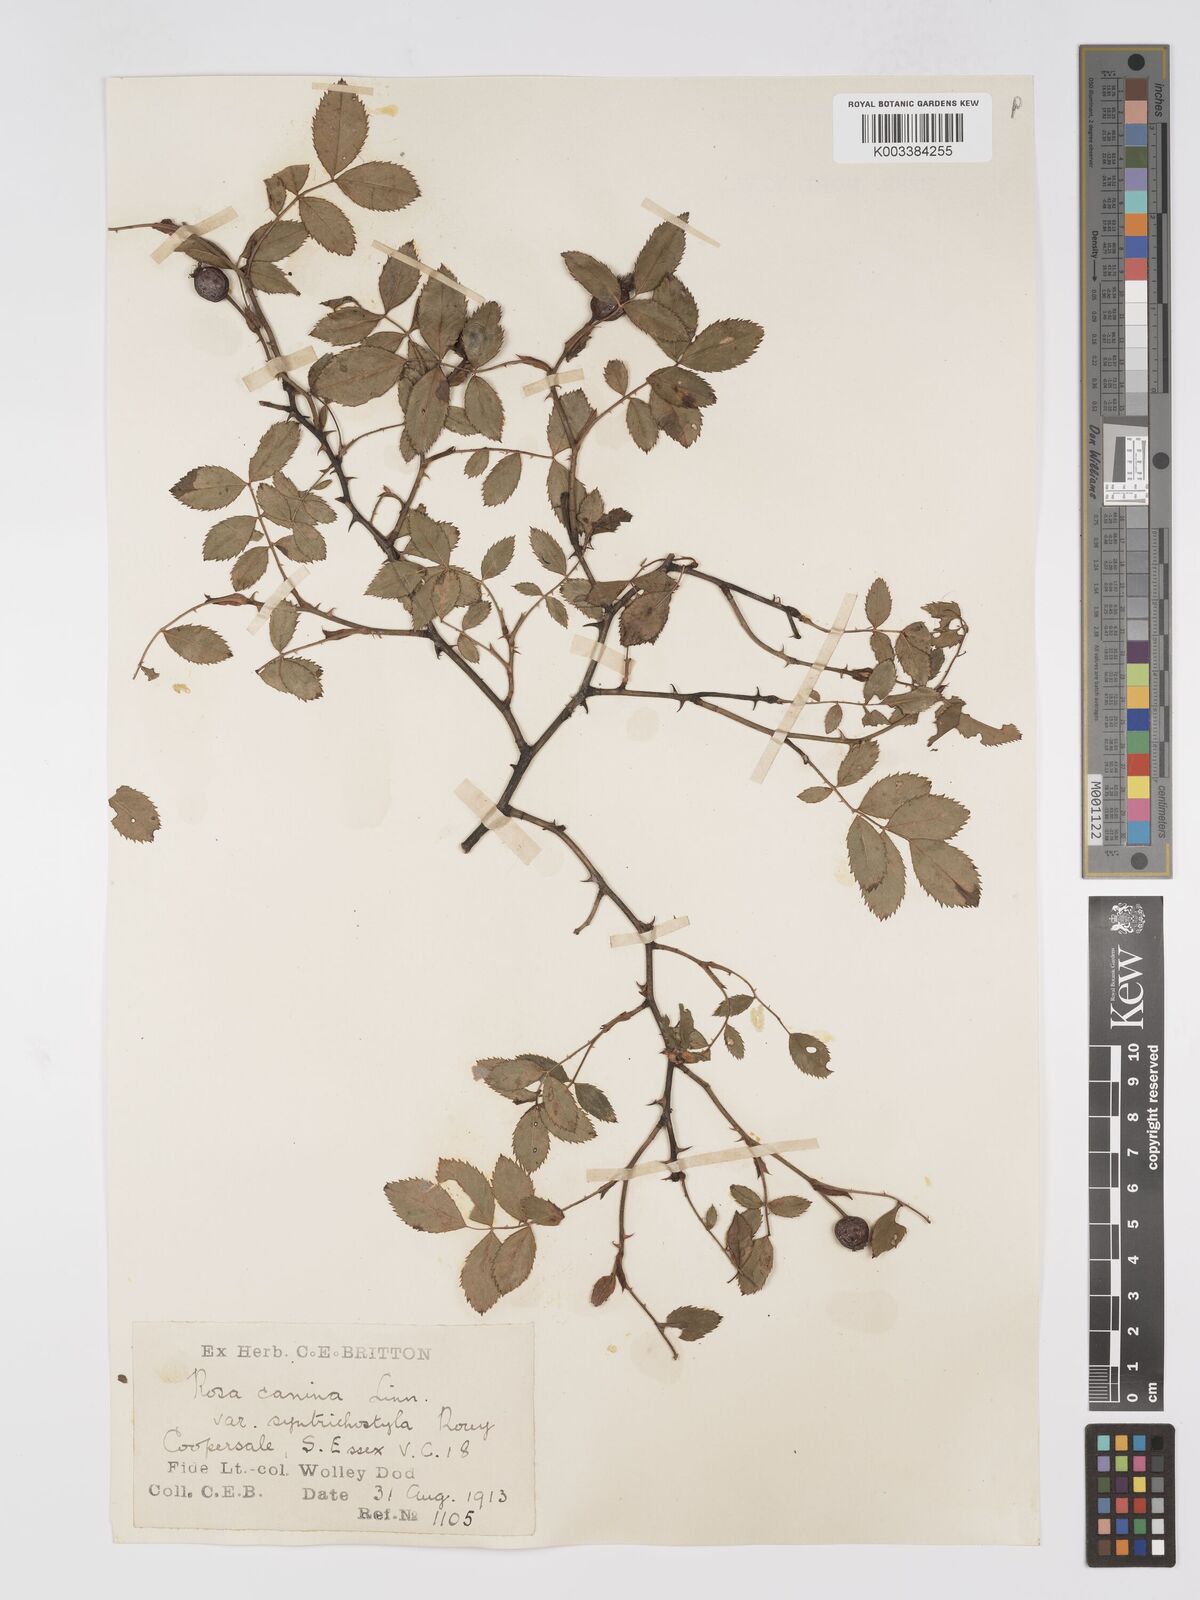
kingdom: Plantae
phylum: Tracheophyta
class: Magnoliopsida
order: Rosales
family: Rosaceae
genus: Rosa
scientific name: Rosa canina
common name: Dog rose
